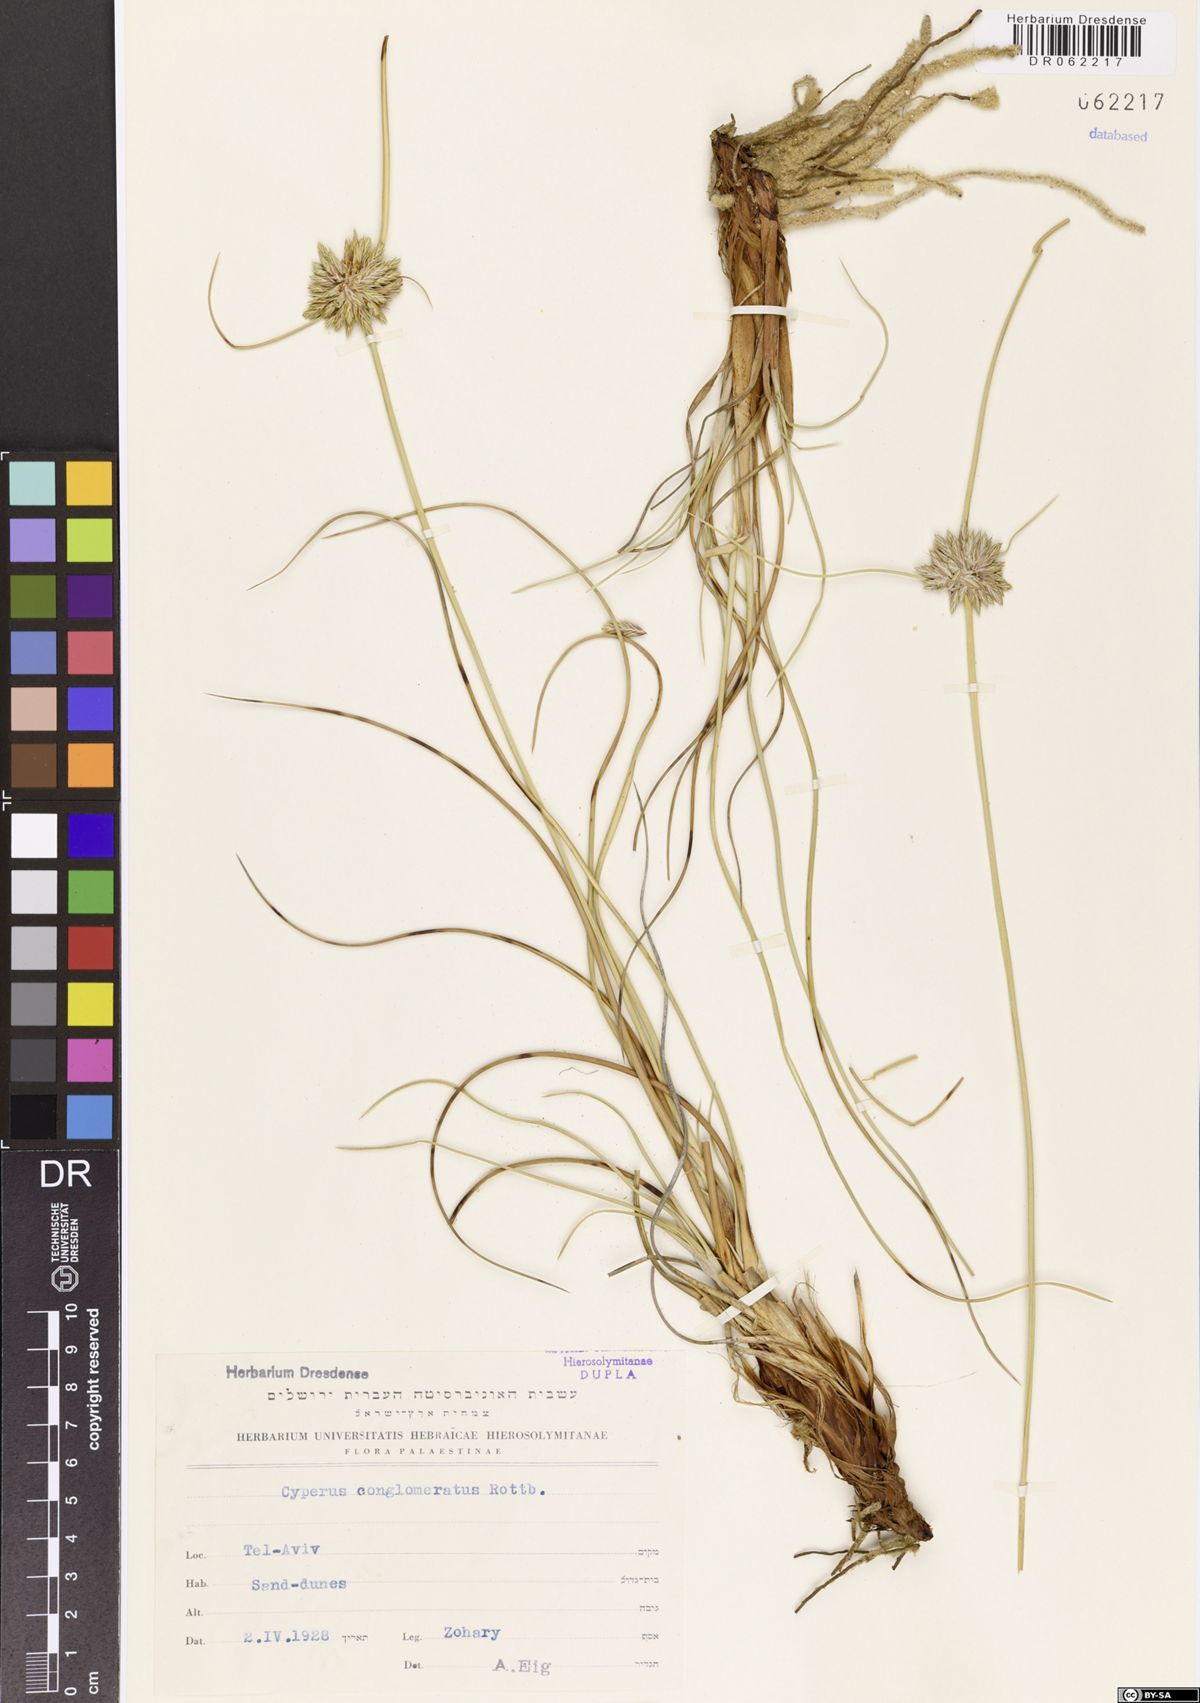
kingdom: Plantae
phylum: Tracheophyta
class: Liliopsida
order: Poales
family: Cyperaceae
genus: Cyperus
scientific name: Cyperus conglomeratus
